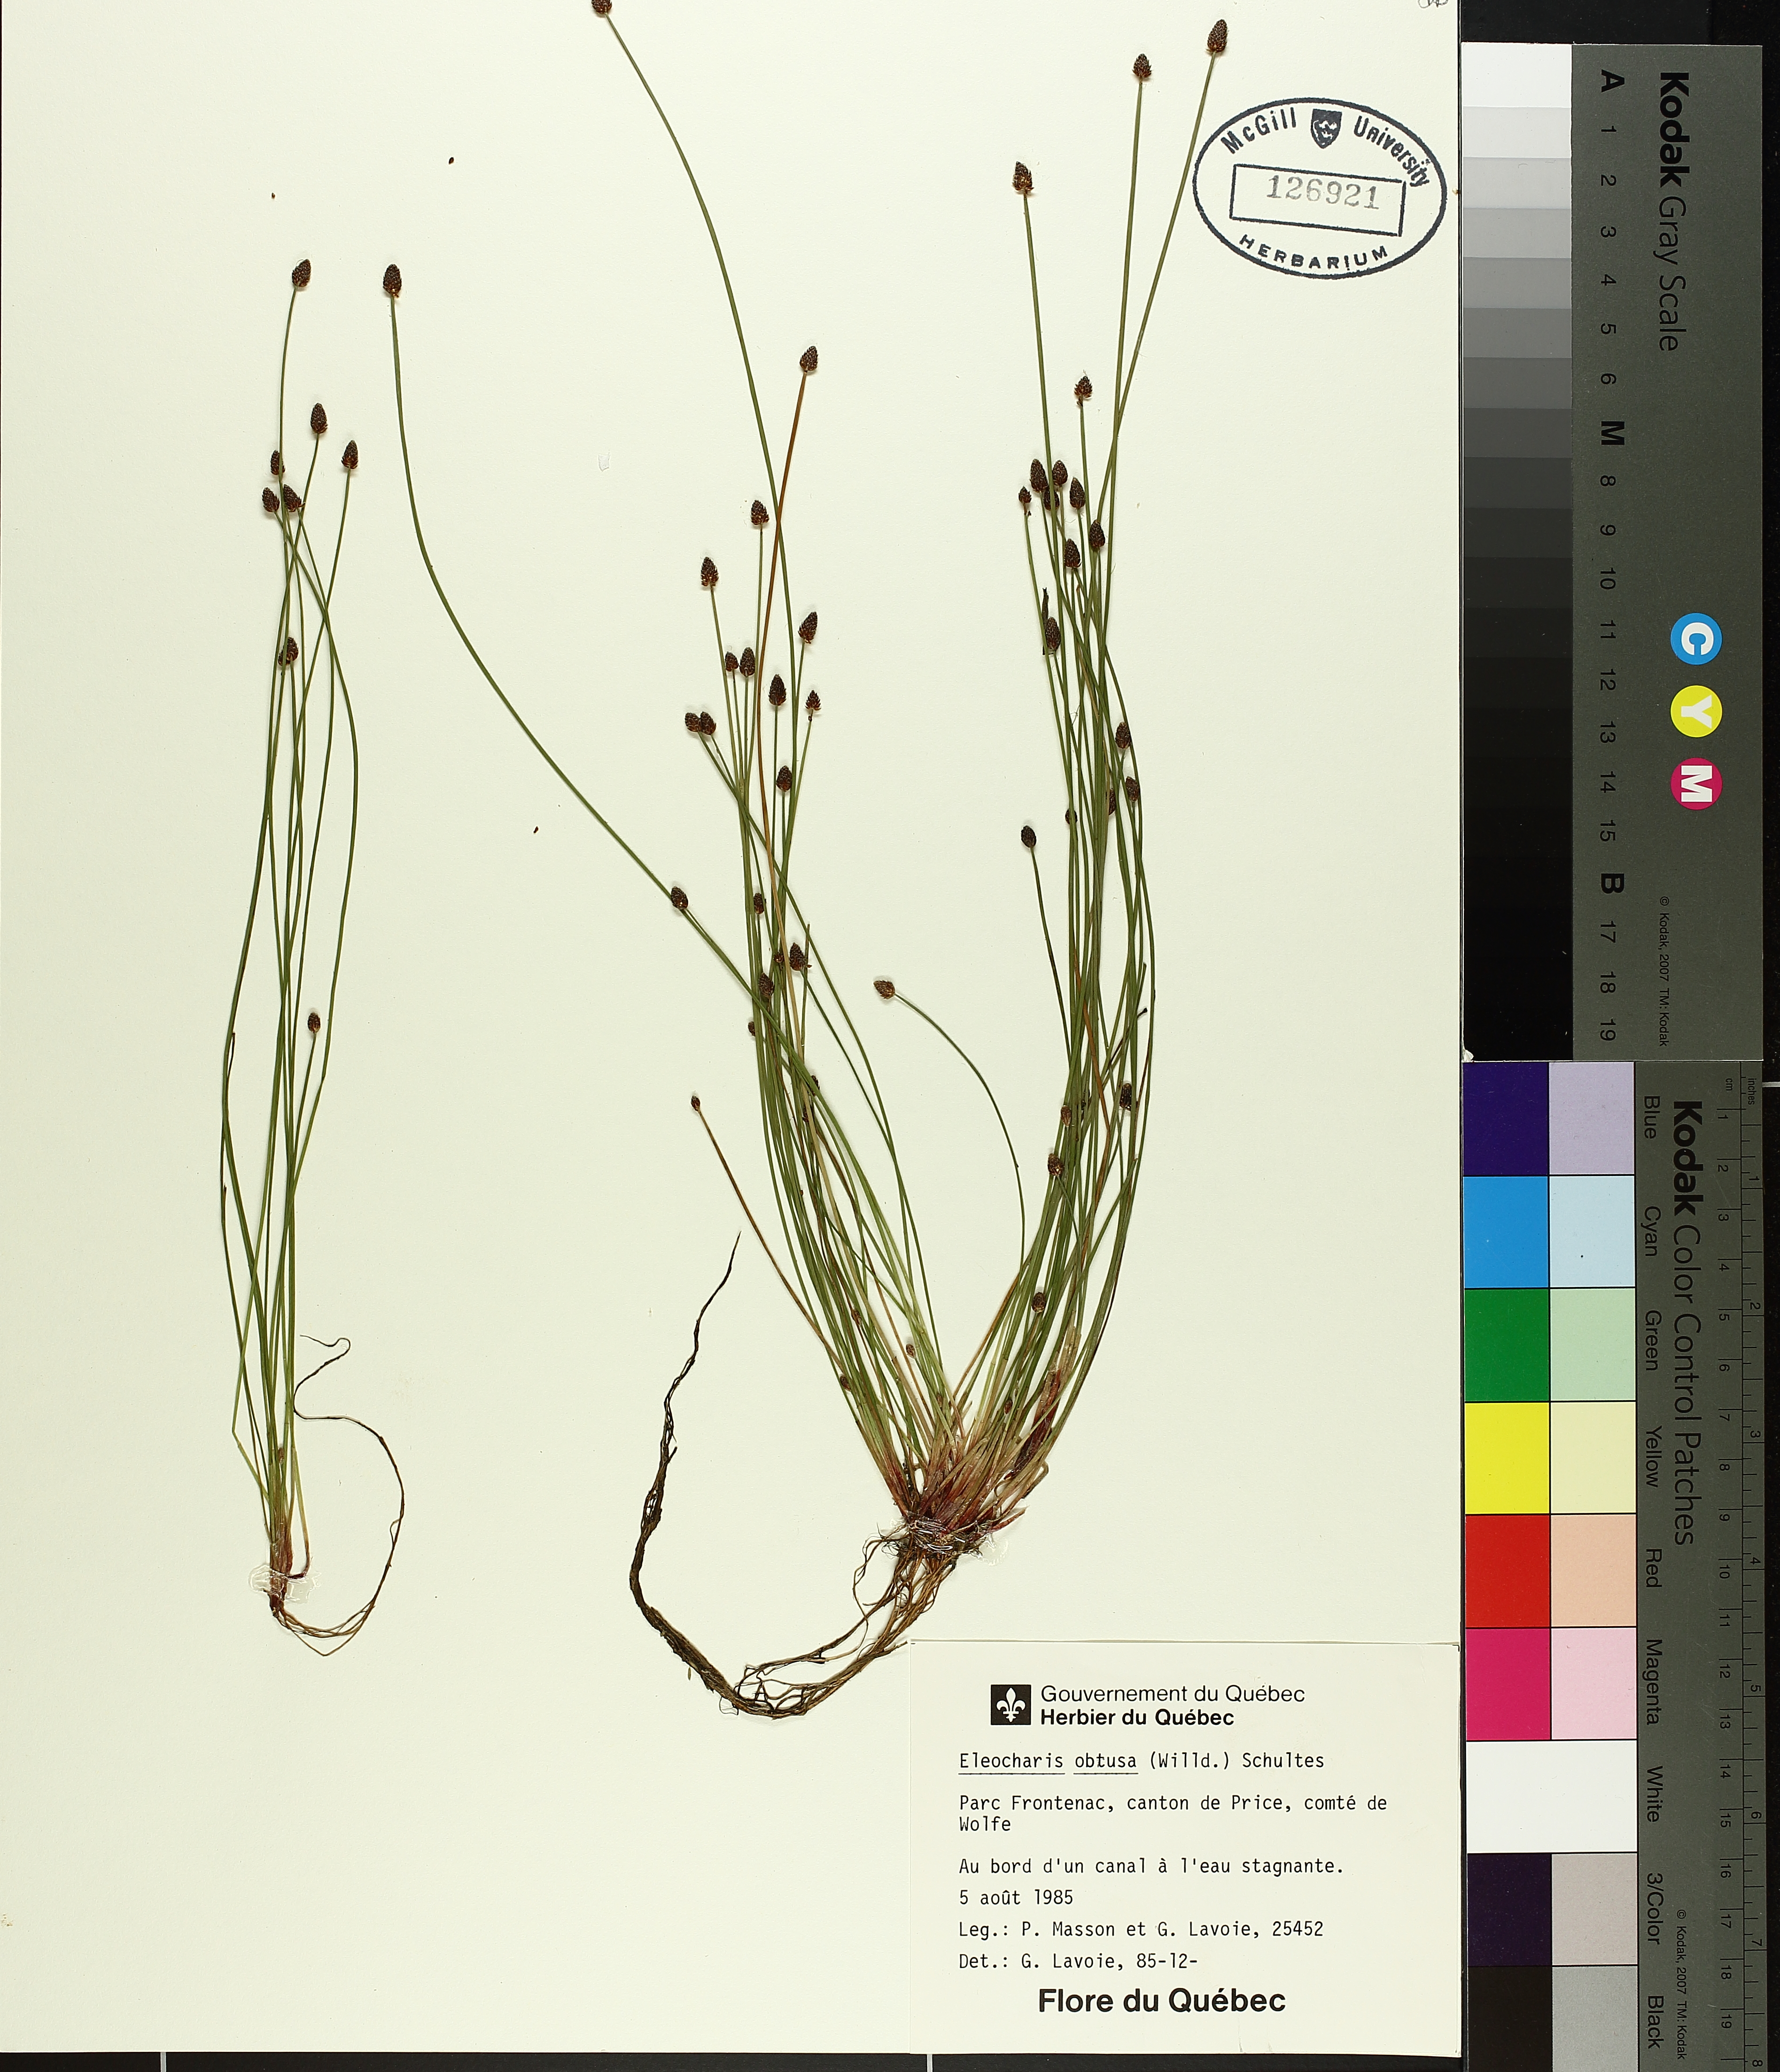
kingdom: Plantae
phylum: Tracheophyta
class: Liliopsida
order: Poales
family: Cyperaceae
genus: Eleocharis
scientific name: Eleocharis obtusa
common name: Blunt spikerush
